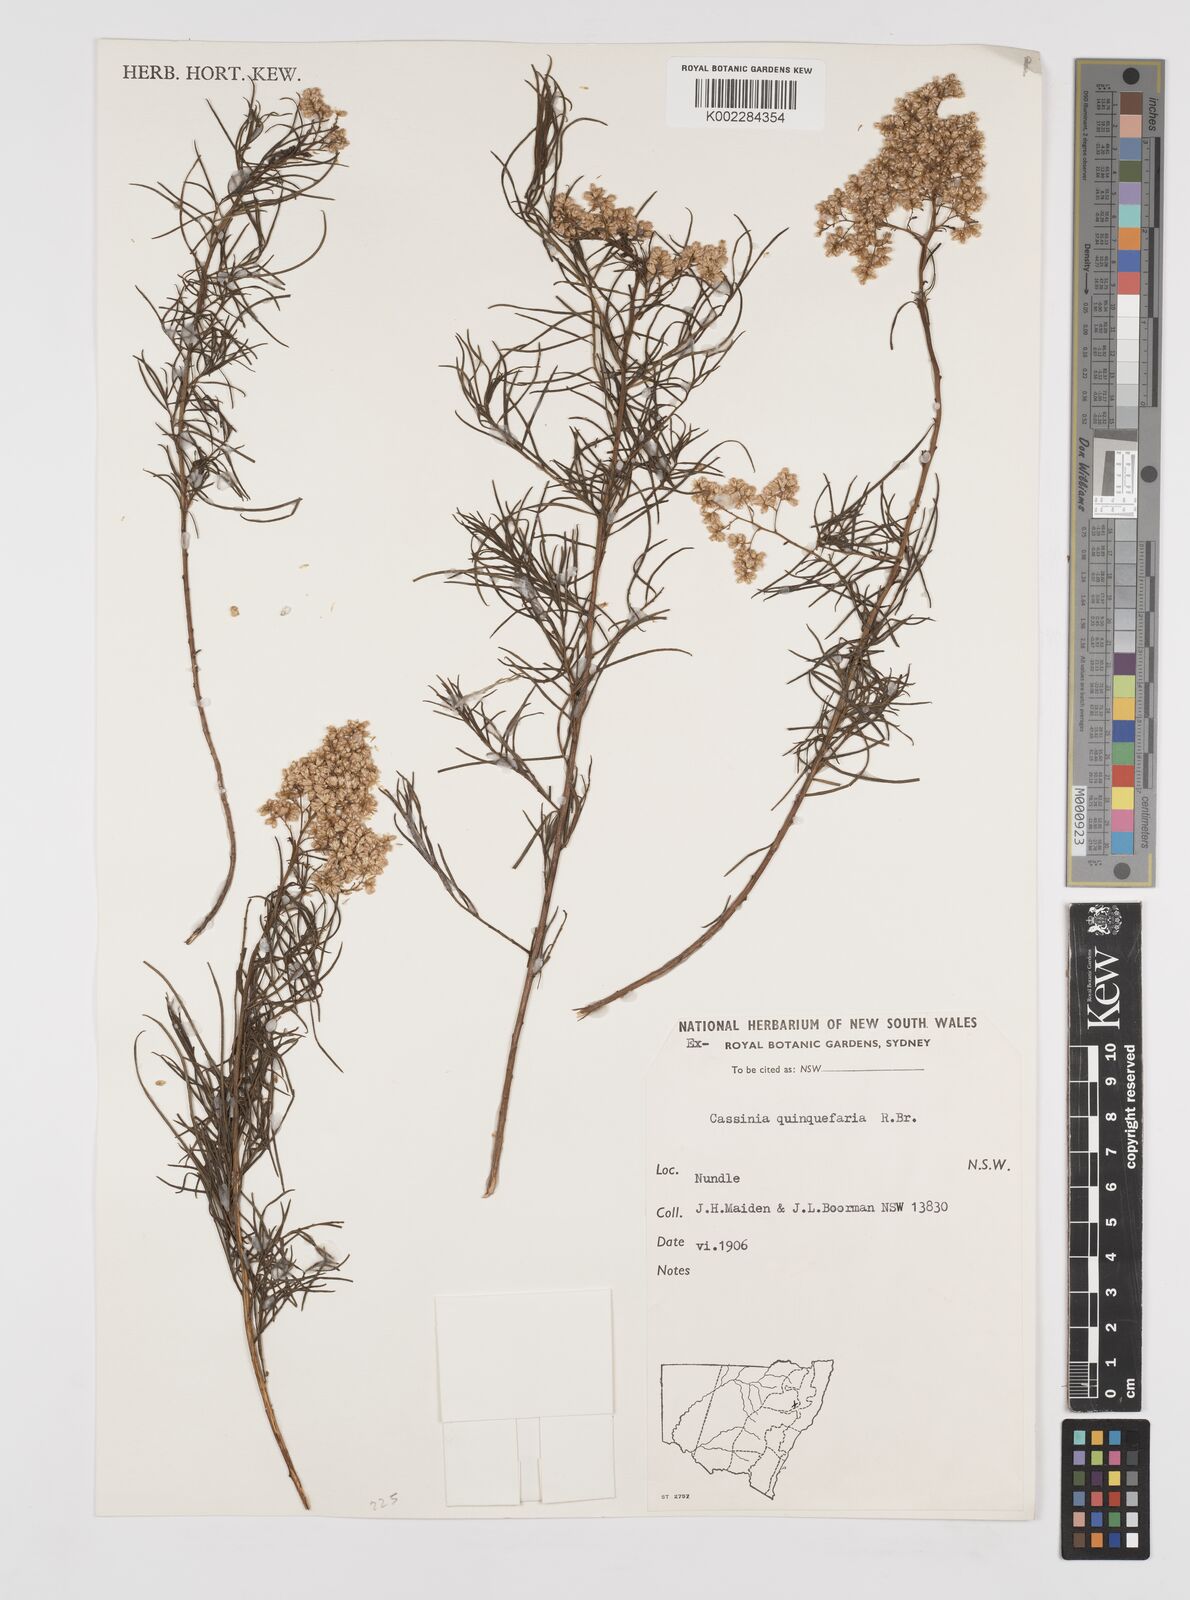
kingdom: Plantae
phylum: Tracheophyta
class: Magnoliopsida
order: Asterales
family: Asteraceae
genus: Cassinia
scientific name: Cassinia quinquefaria
